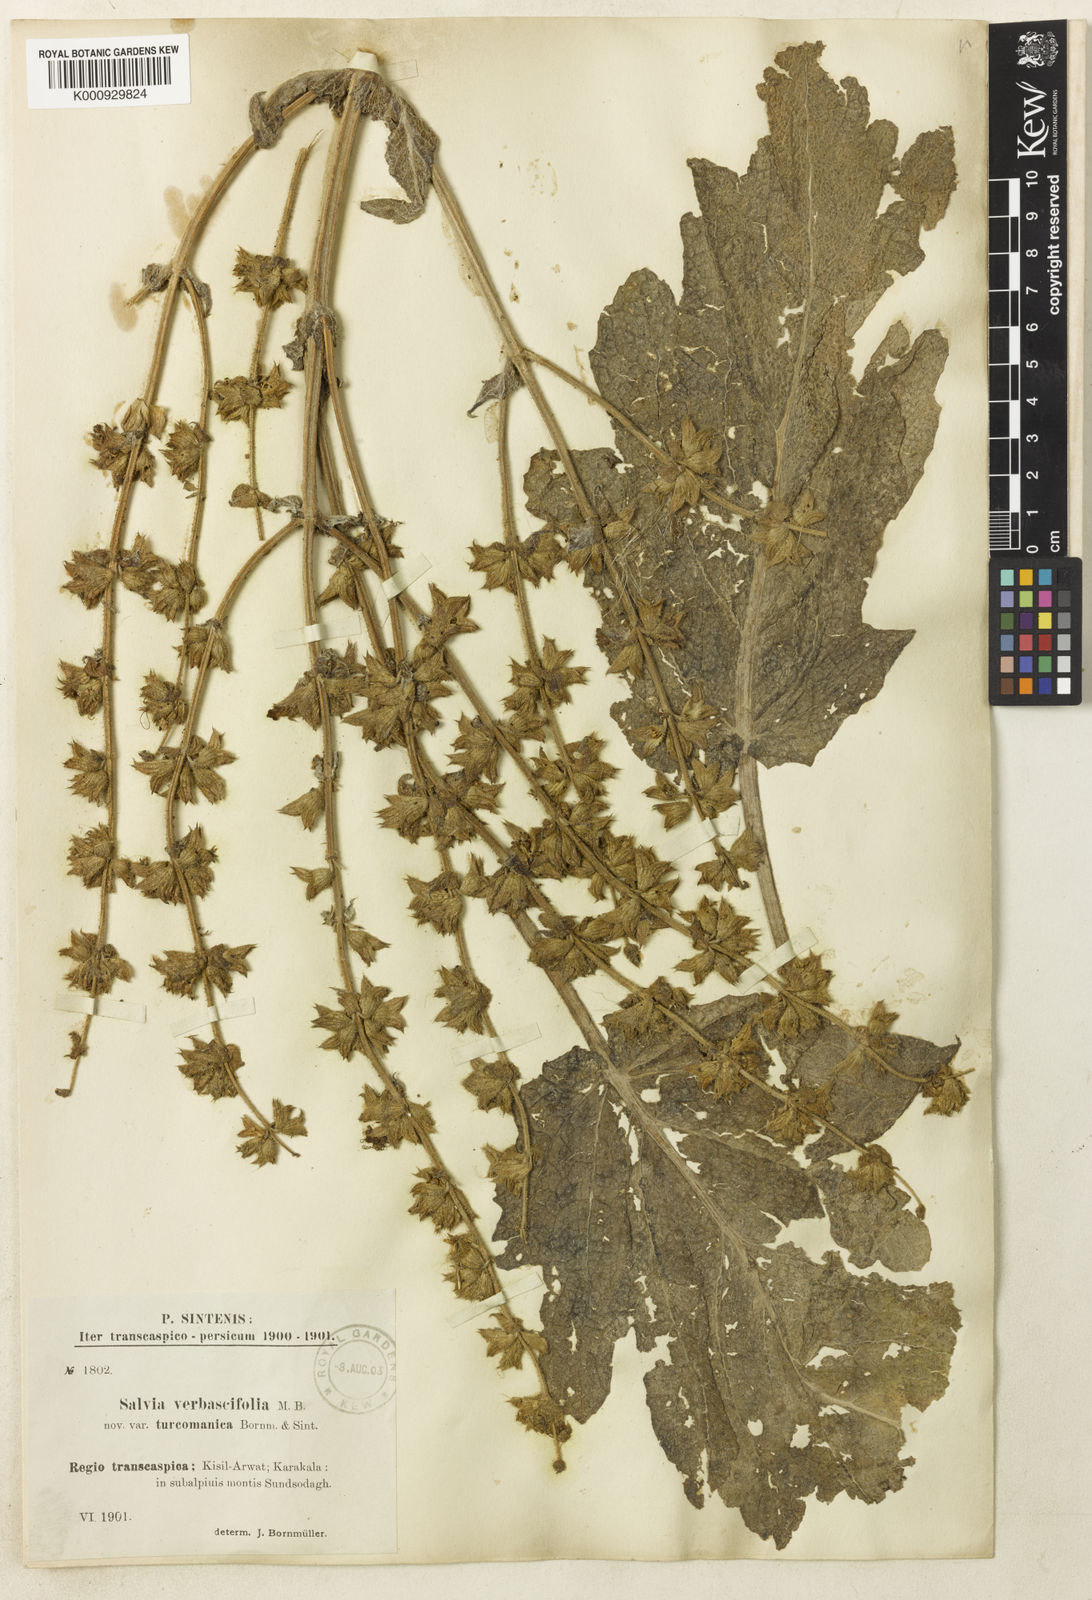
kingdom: Plantae
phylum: Tracheophyta
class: Magnoliopsida
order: Lamiales
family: Lamiaceae
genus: Salvia
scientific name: Salvia verbascifolia
